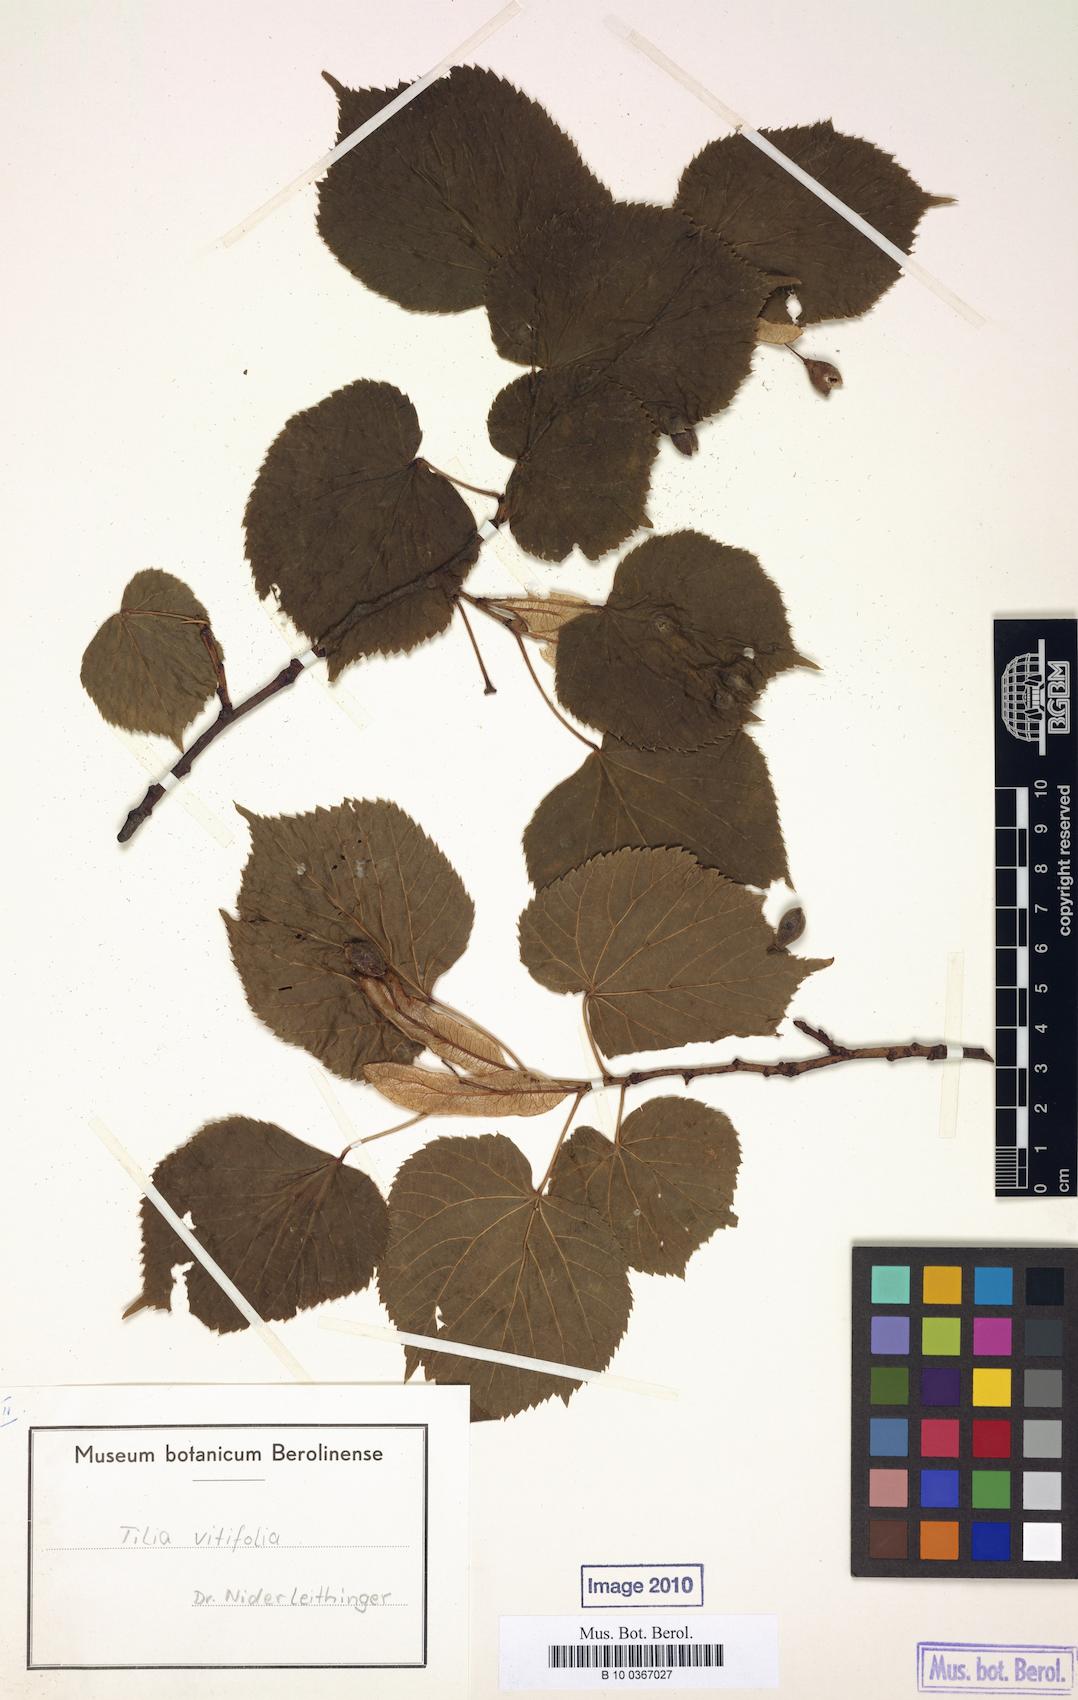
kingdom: Plantae
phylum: Tracheophyta
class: Magnoliopsida
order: Malvales
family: Malvaceae
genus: Tilia
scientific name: Tilia platyphyllos
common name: Large-leaved lime
